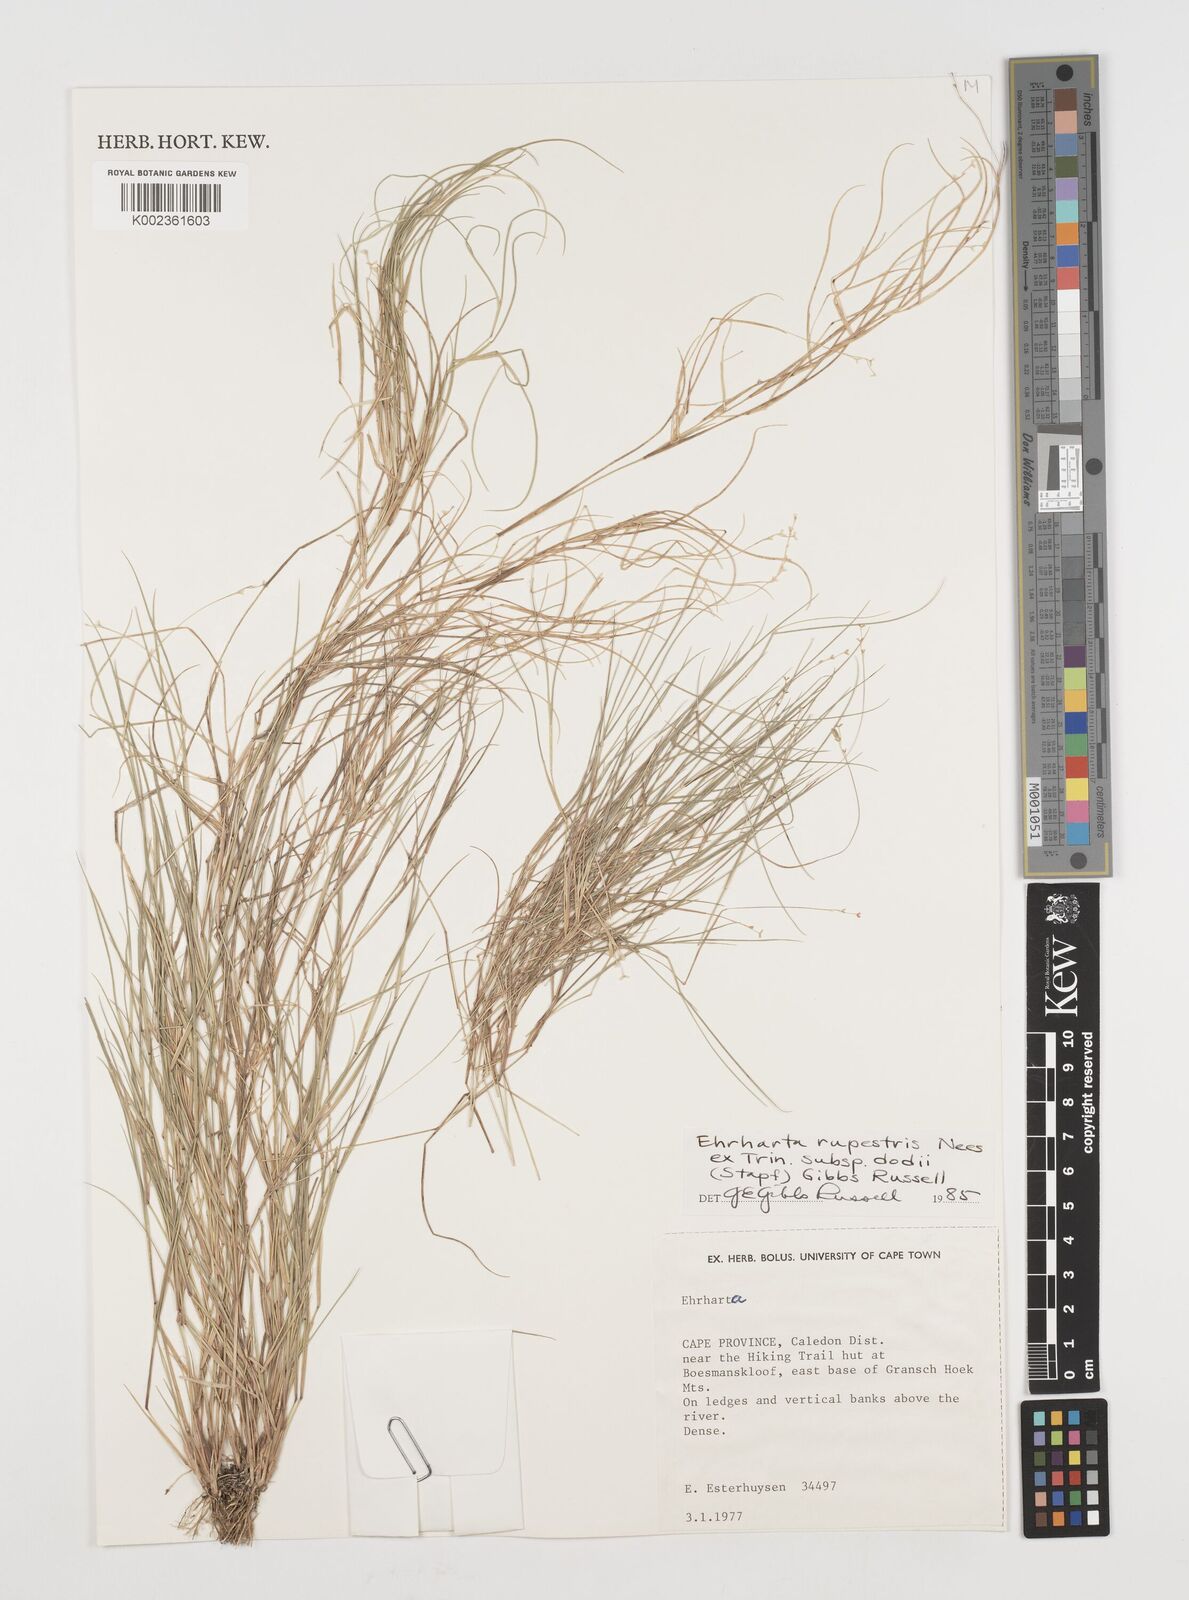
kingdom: Plantae
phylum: Tracheophyta
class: Liliopsida
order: Poales
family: Poaceae
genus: Ehrharta
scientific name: Ehrharta rupestris
